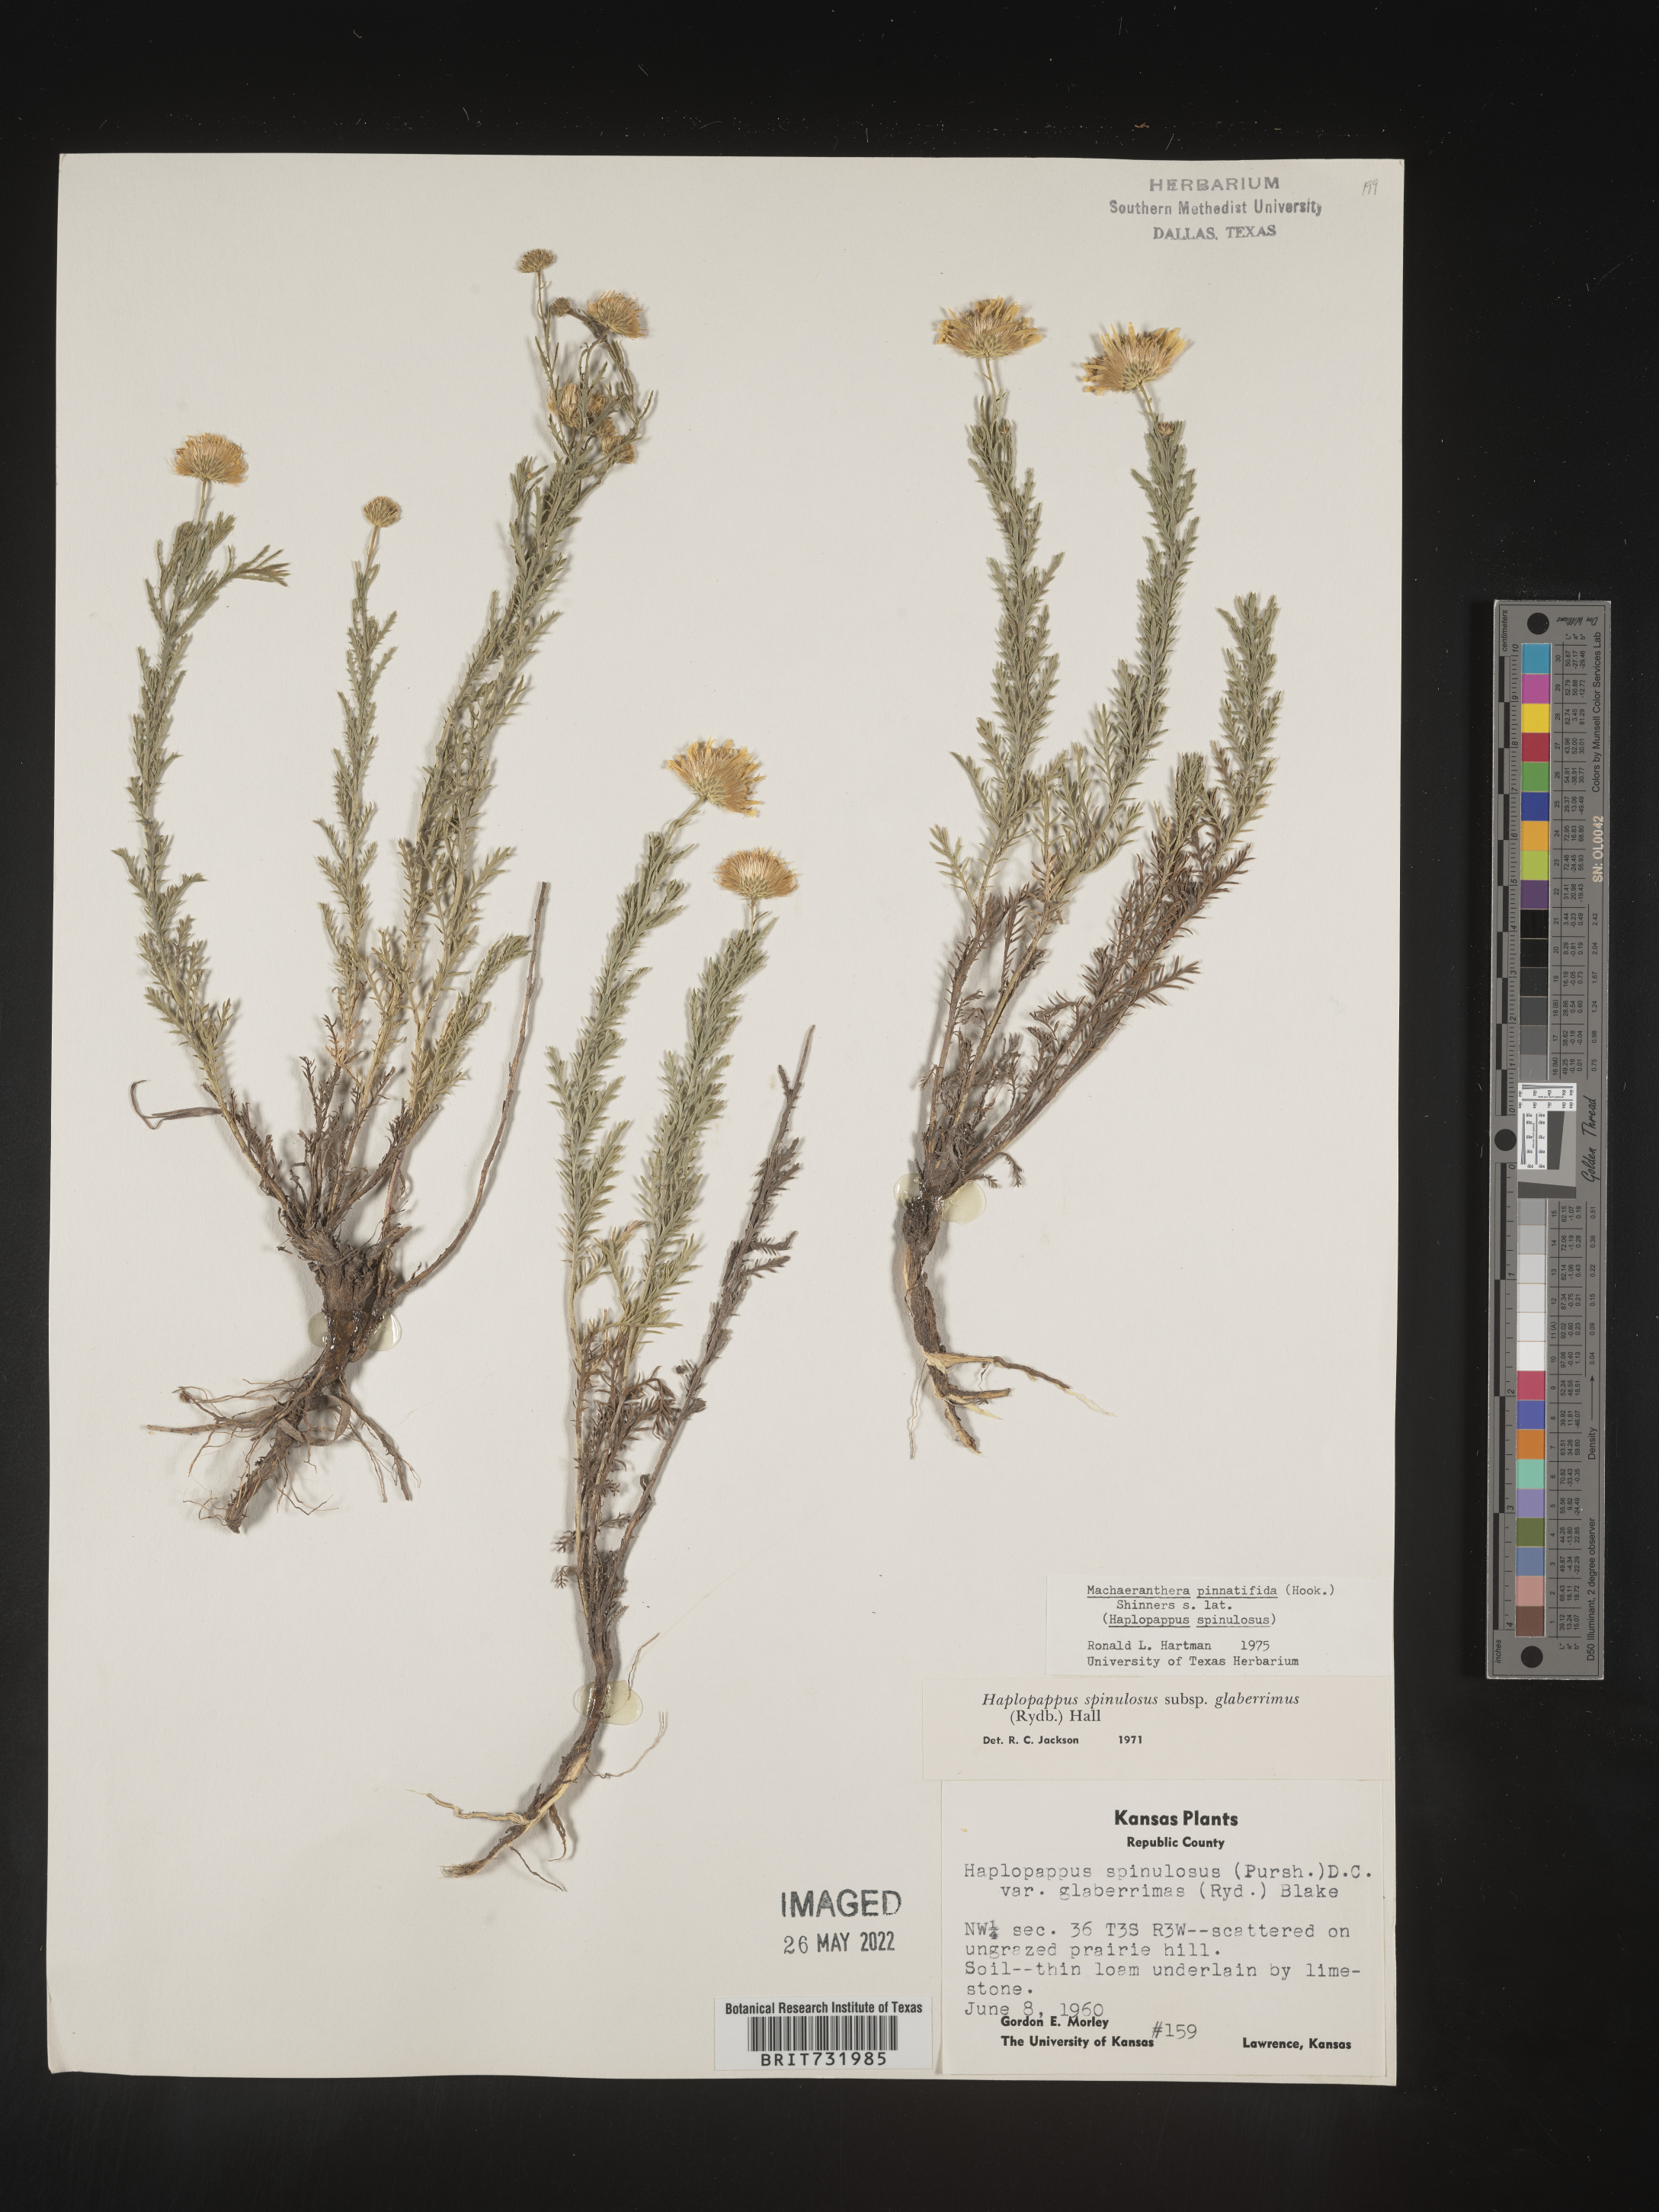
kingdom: Plantae
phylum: Tracheophyta
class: Magnoliopsida
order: Asterales
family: Asteraceae
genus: Xanthisma
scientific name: Xanthisma spinulosum
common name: Spiny goldenweed
